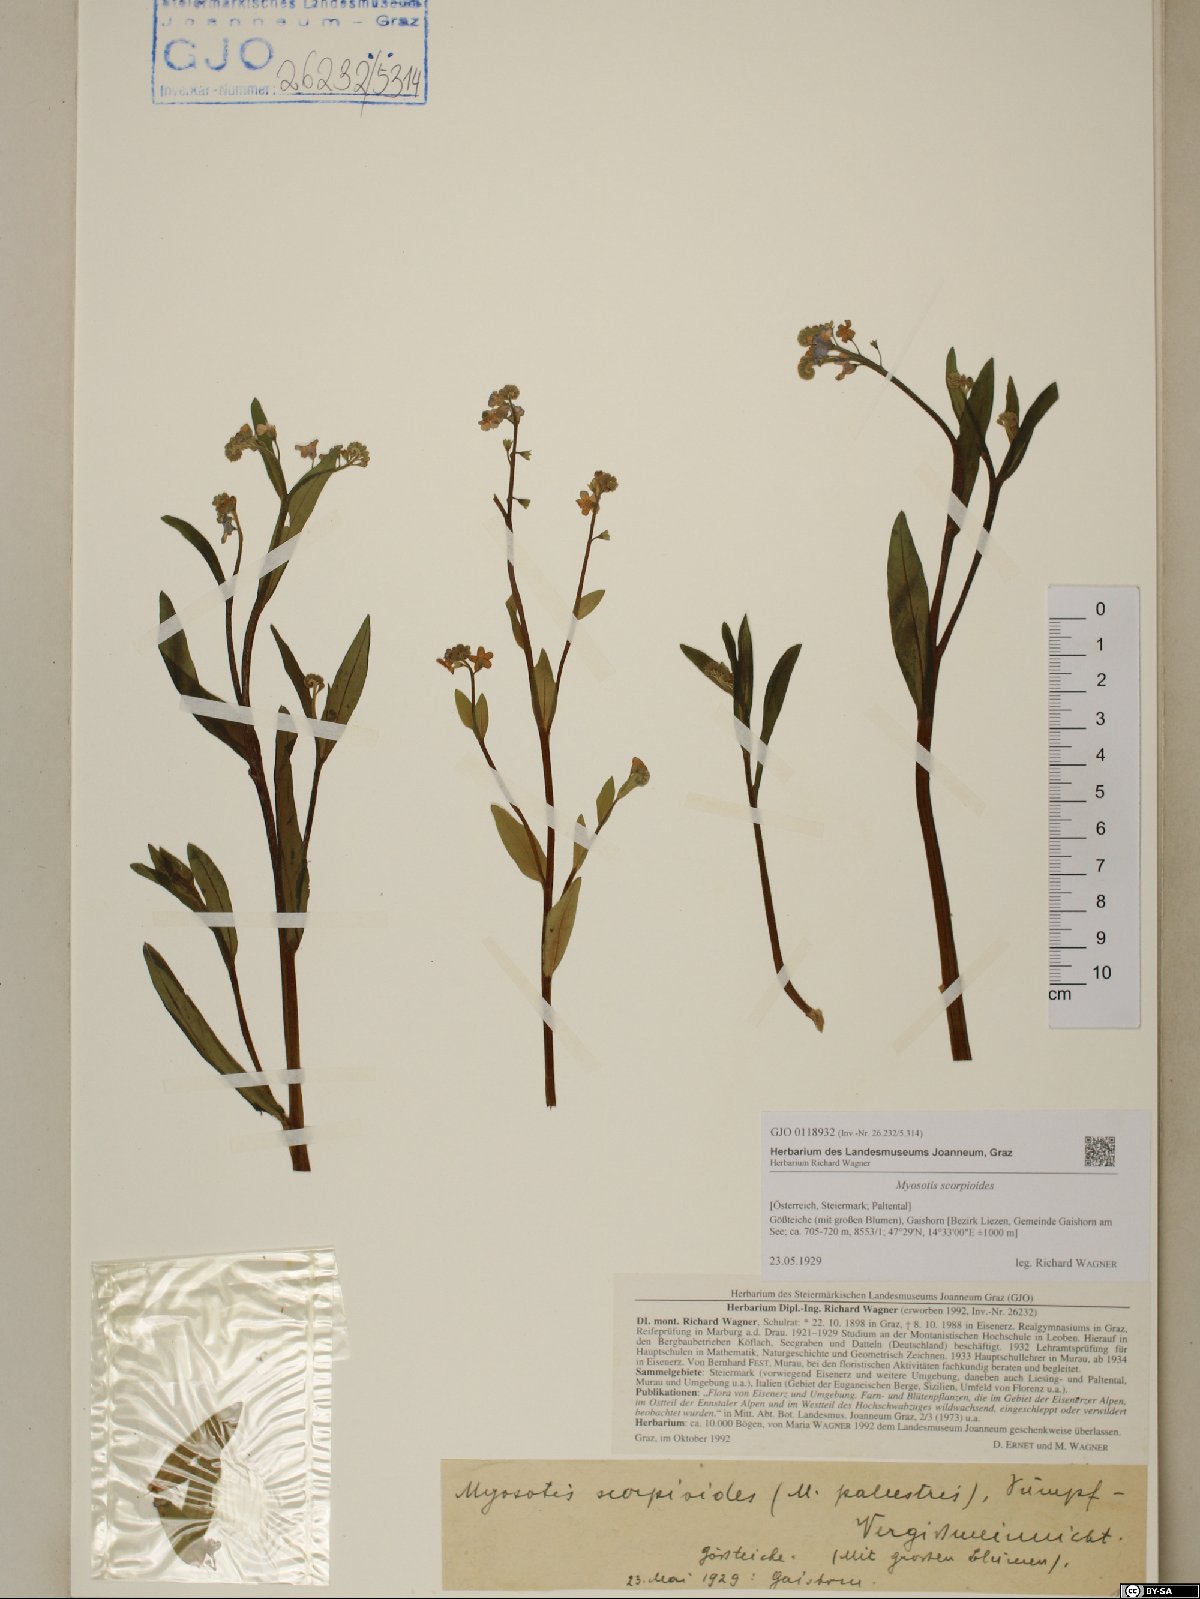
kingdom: Plantae
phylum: Tracheophyta
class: Magnoliopsida
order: Boraginales
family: Boraginaceae
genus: Myosotis
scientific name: Myosotis scorpioides
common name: Water forget-me-not
